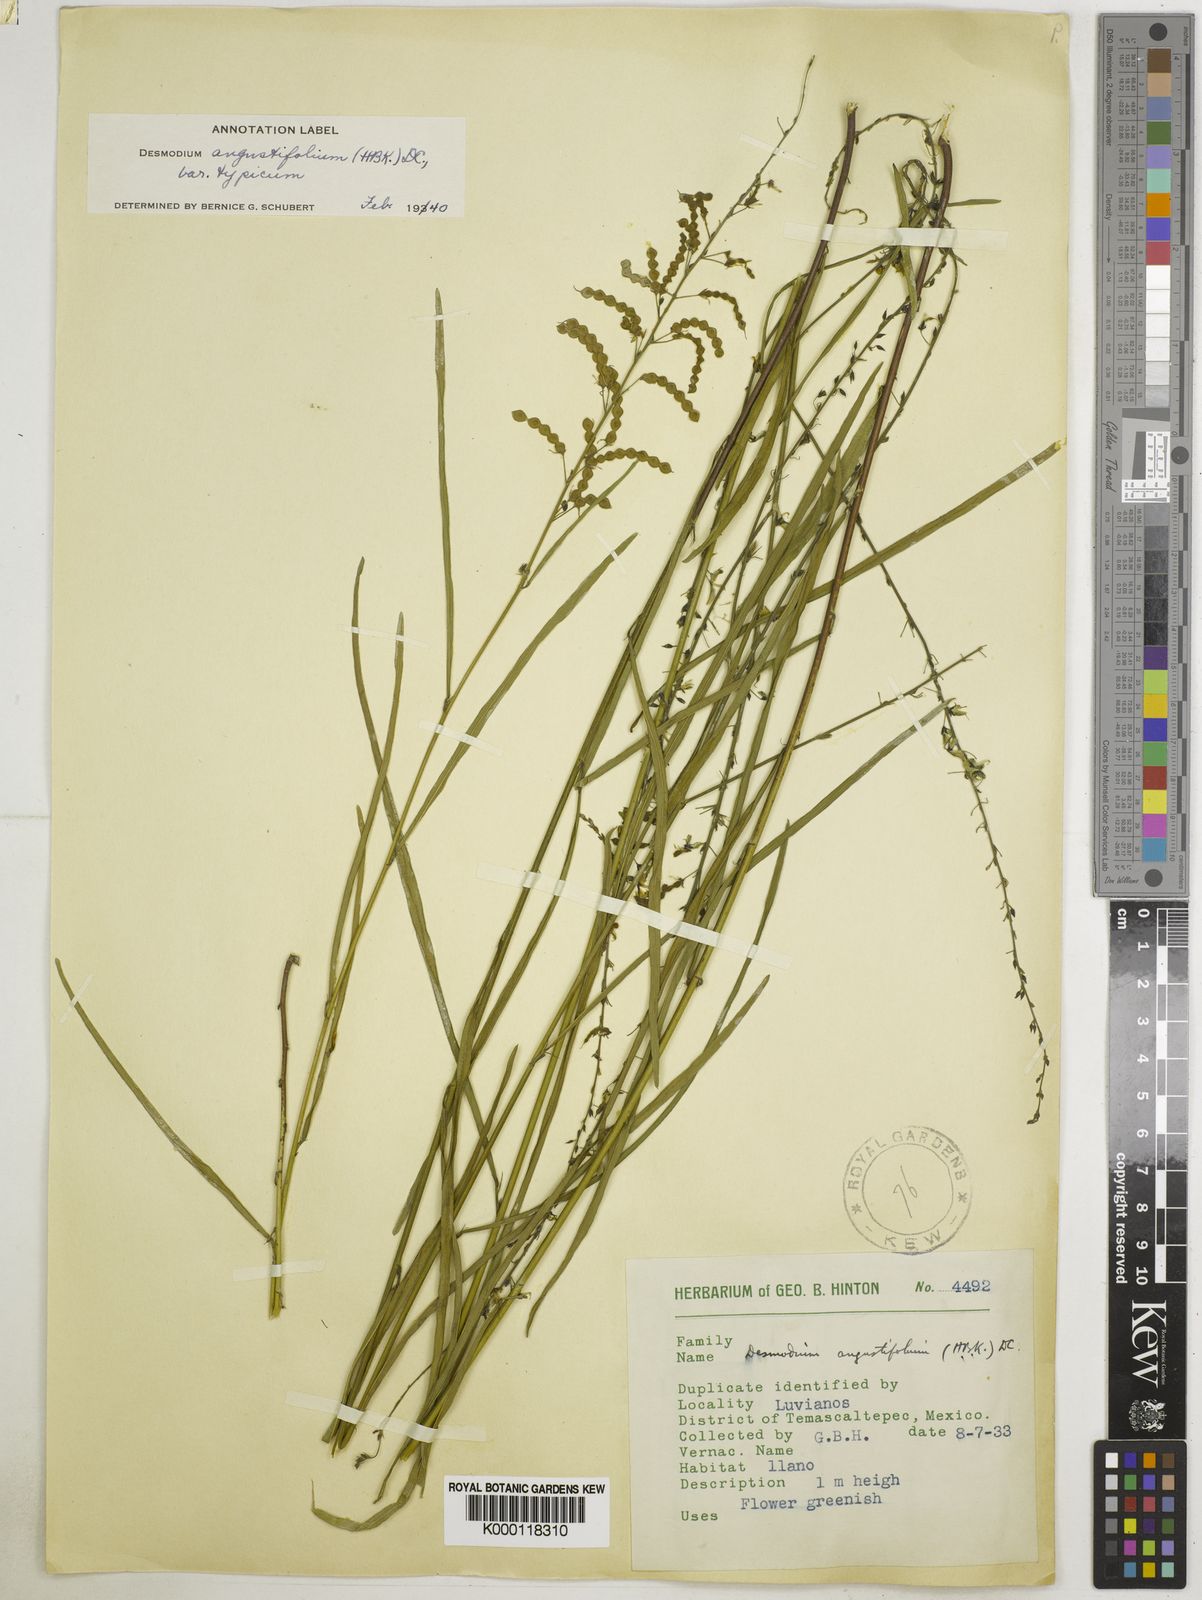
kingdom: Plantae
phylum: Tracheophyta
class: Magnoliopsida
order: Fabales
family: Fabaceae
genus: Desmodium
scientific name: Desmodium angustifolium
